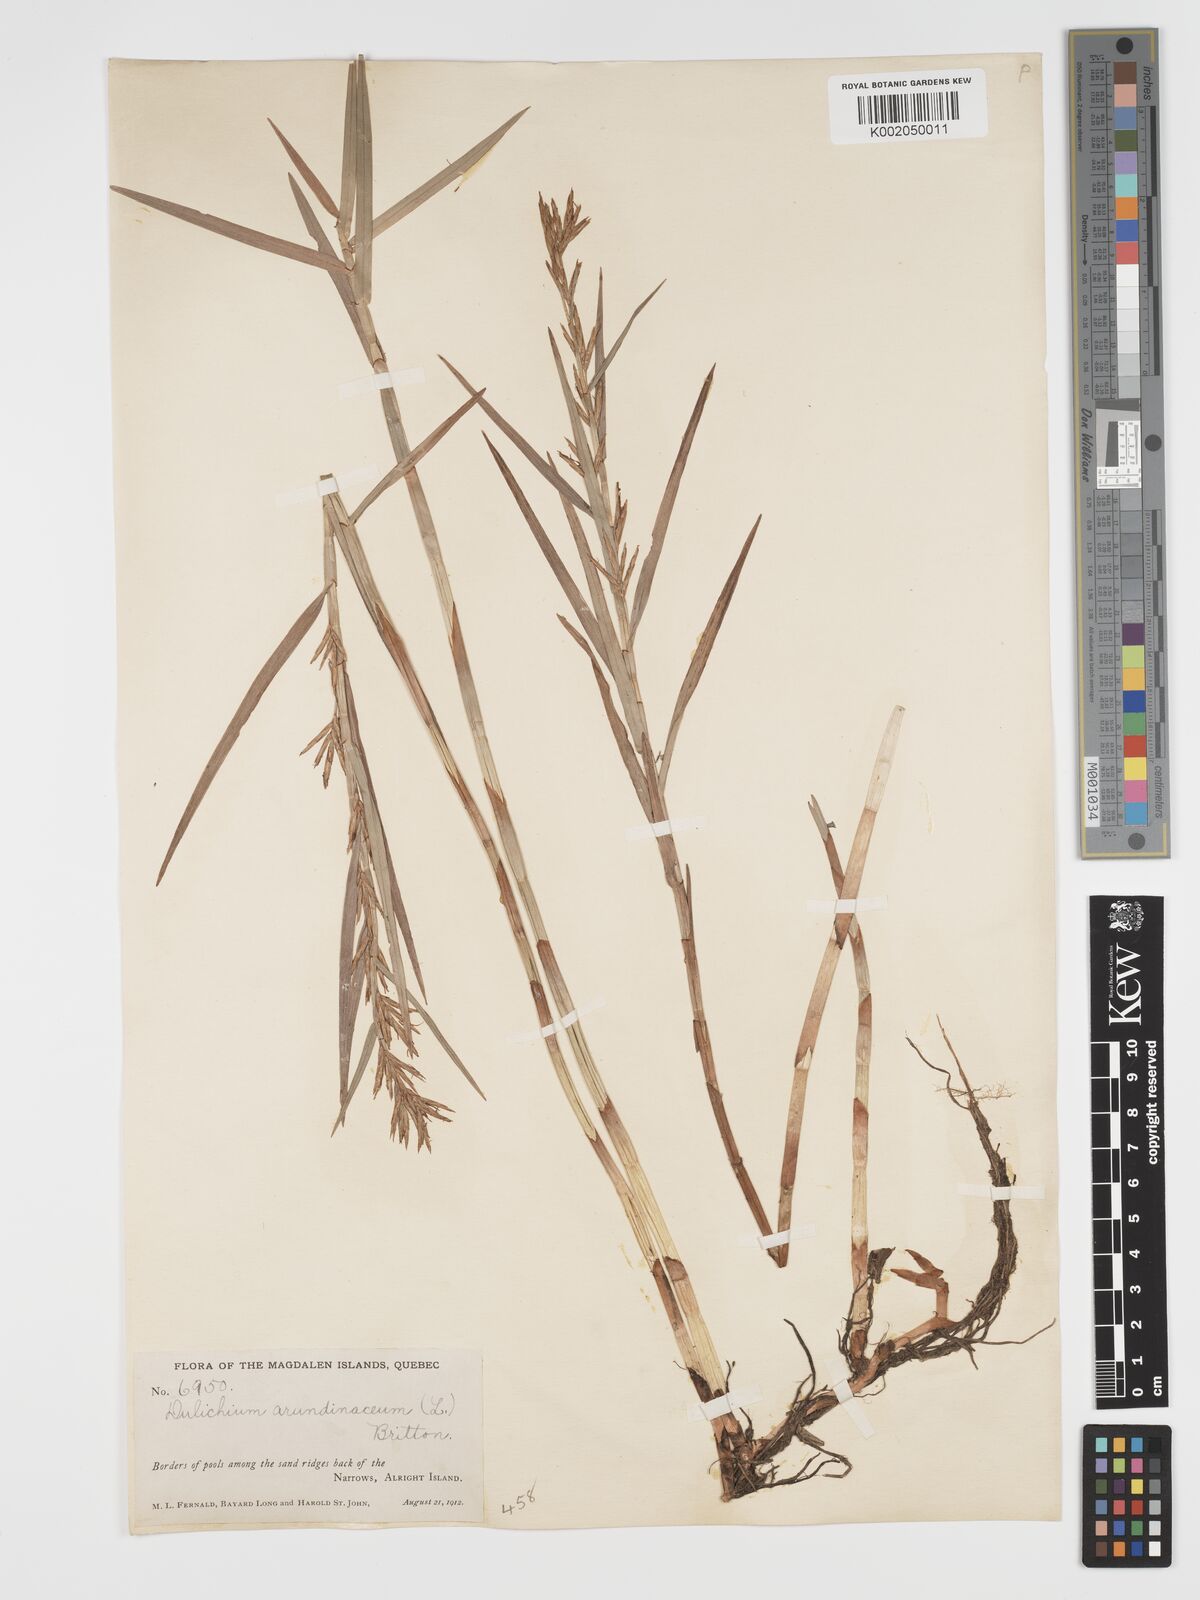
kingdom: Plantae
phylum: Tracheophyta
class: Liliopsida
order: Poales
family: Cyperaceae
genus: Dulichium
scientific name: Dulichium arundinaceum
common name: Three-way sedge
